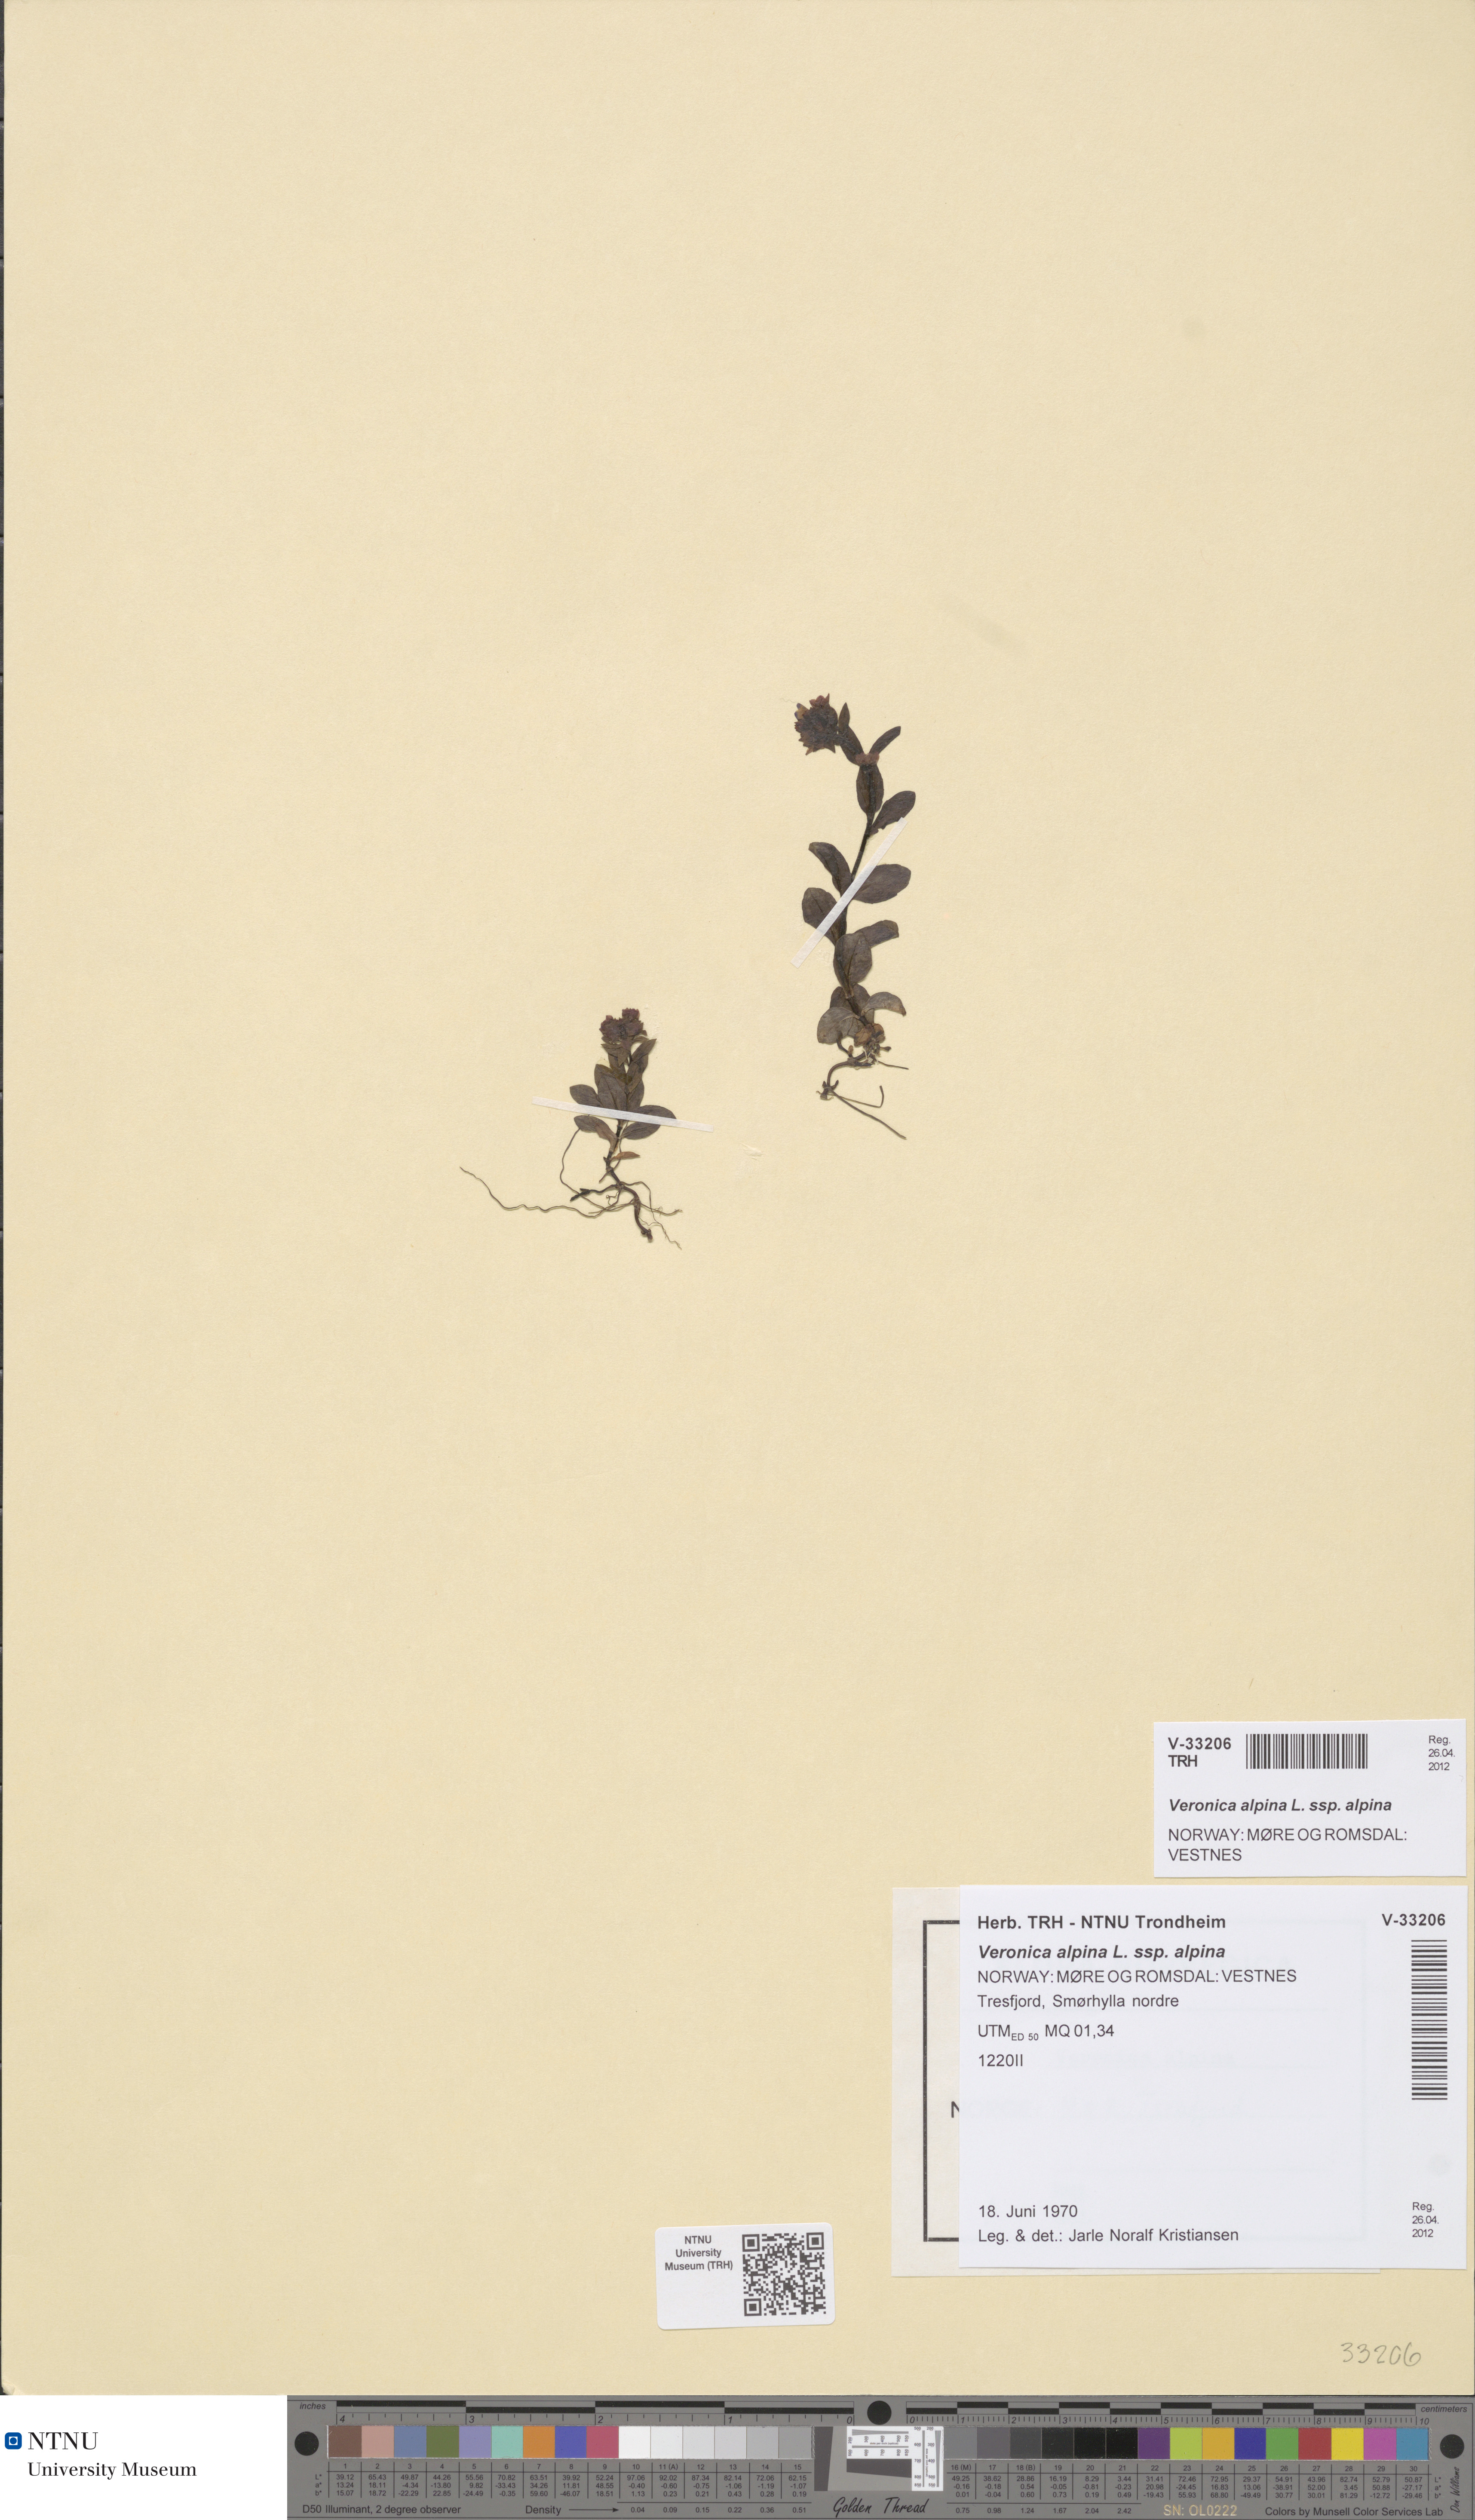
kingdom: Plantae
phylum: Tracheophyta
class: Magnoliopsida
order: Lamiales
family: Plantaginaceae
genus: Veronica
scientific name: Veronica alpina
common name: Alpine speedwell
